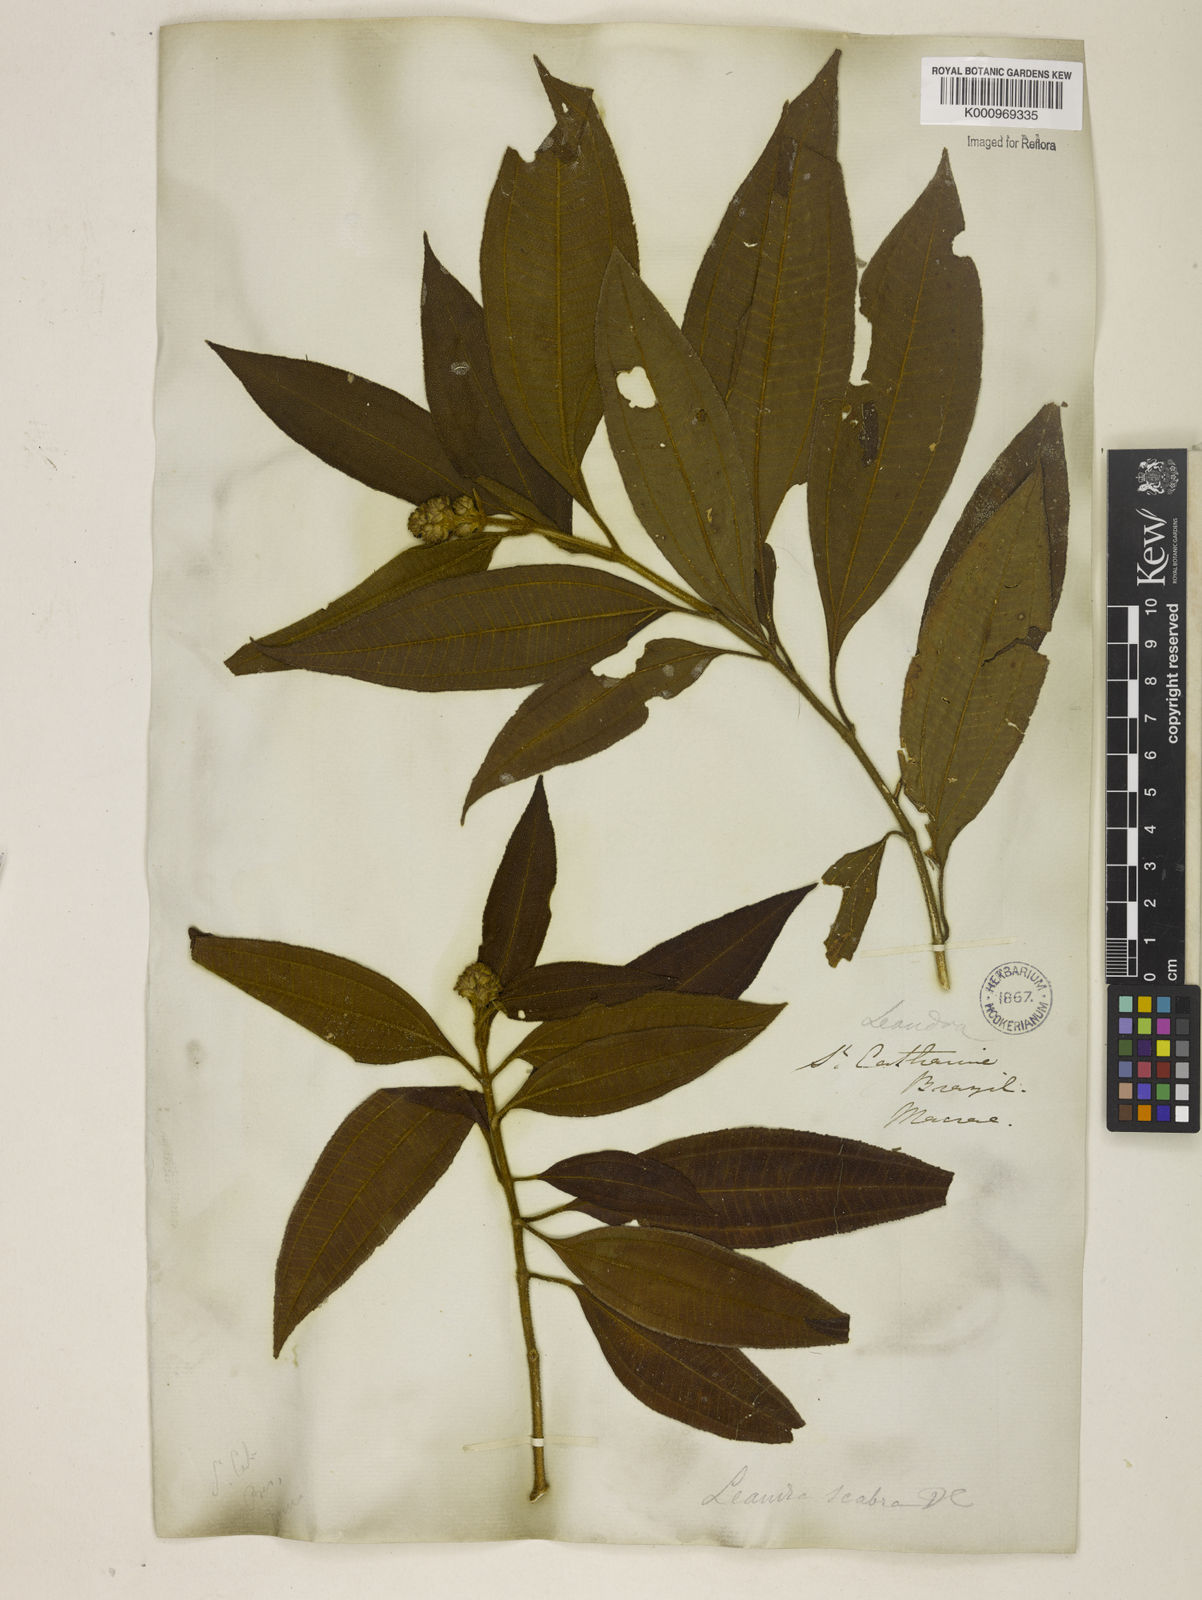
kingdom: Plantae
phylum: Tracheophyta
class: Magnoliopsida
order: Myrtales
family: Melastomataceae
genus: Miconia
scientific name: Miconia melastomoides
